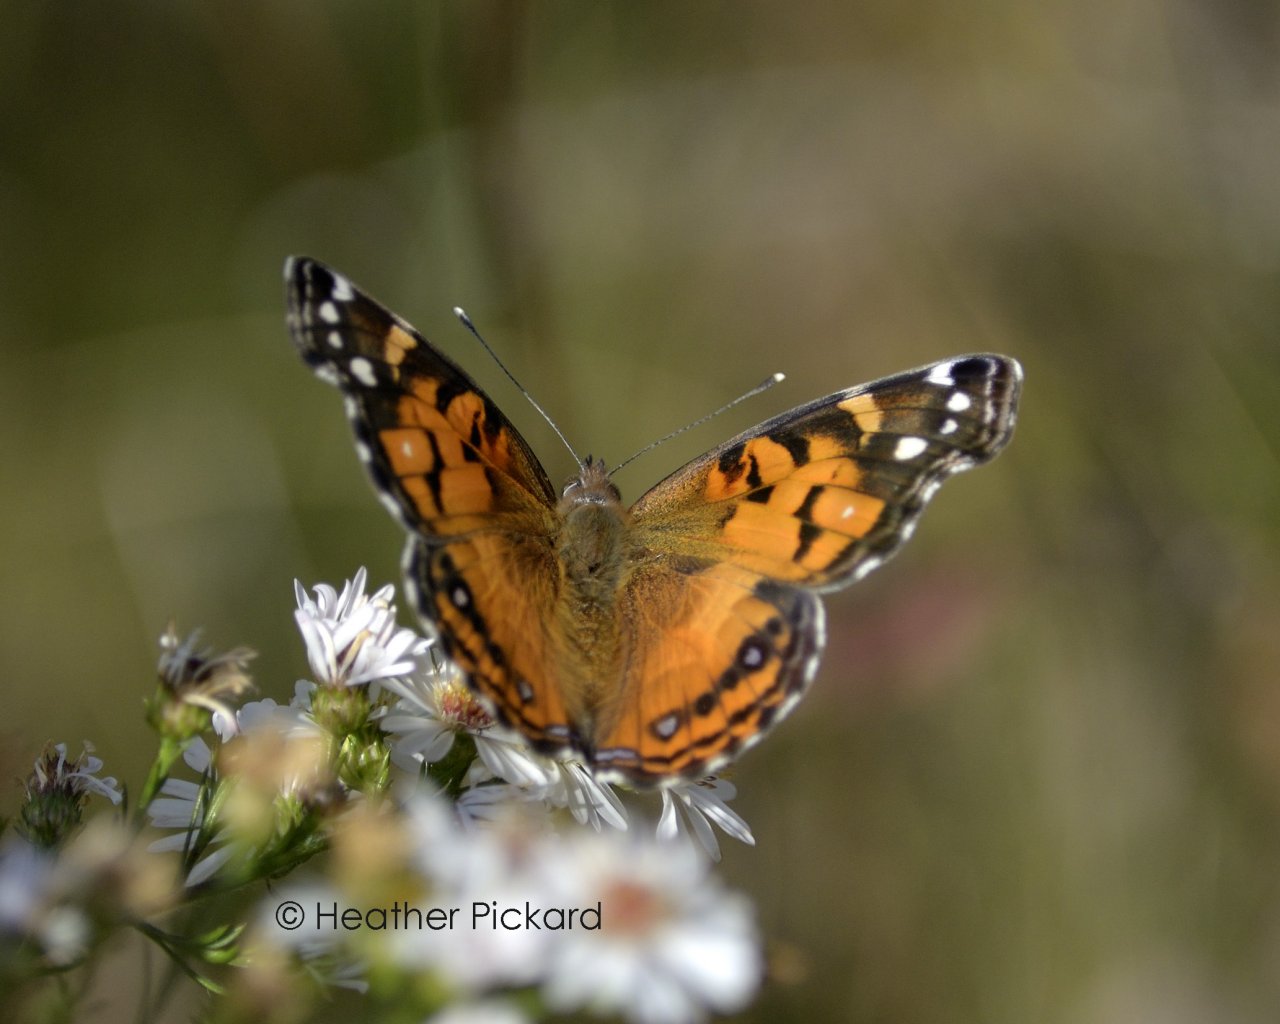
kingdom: Animalia
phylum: Arthropoda
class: Insecta
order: Lepidoptera
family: Nymphalidae
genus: Vanessa
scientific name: Vanessa virginiensis
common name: American Lady
